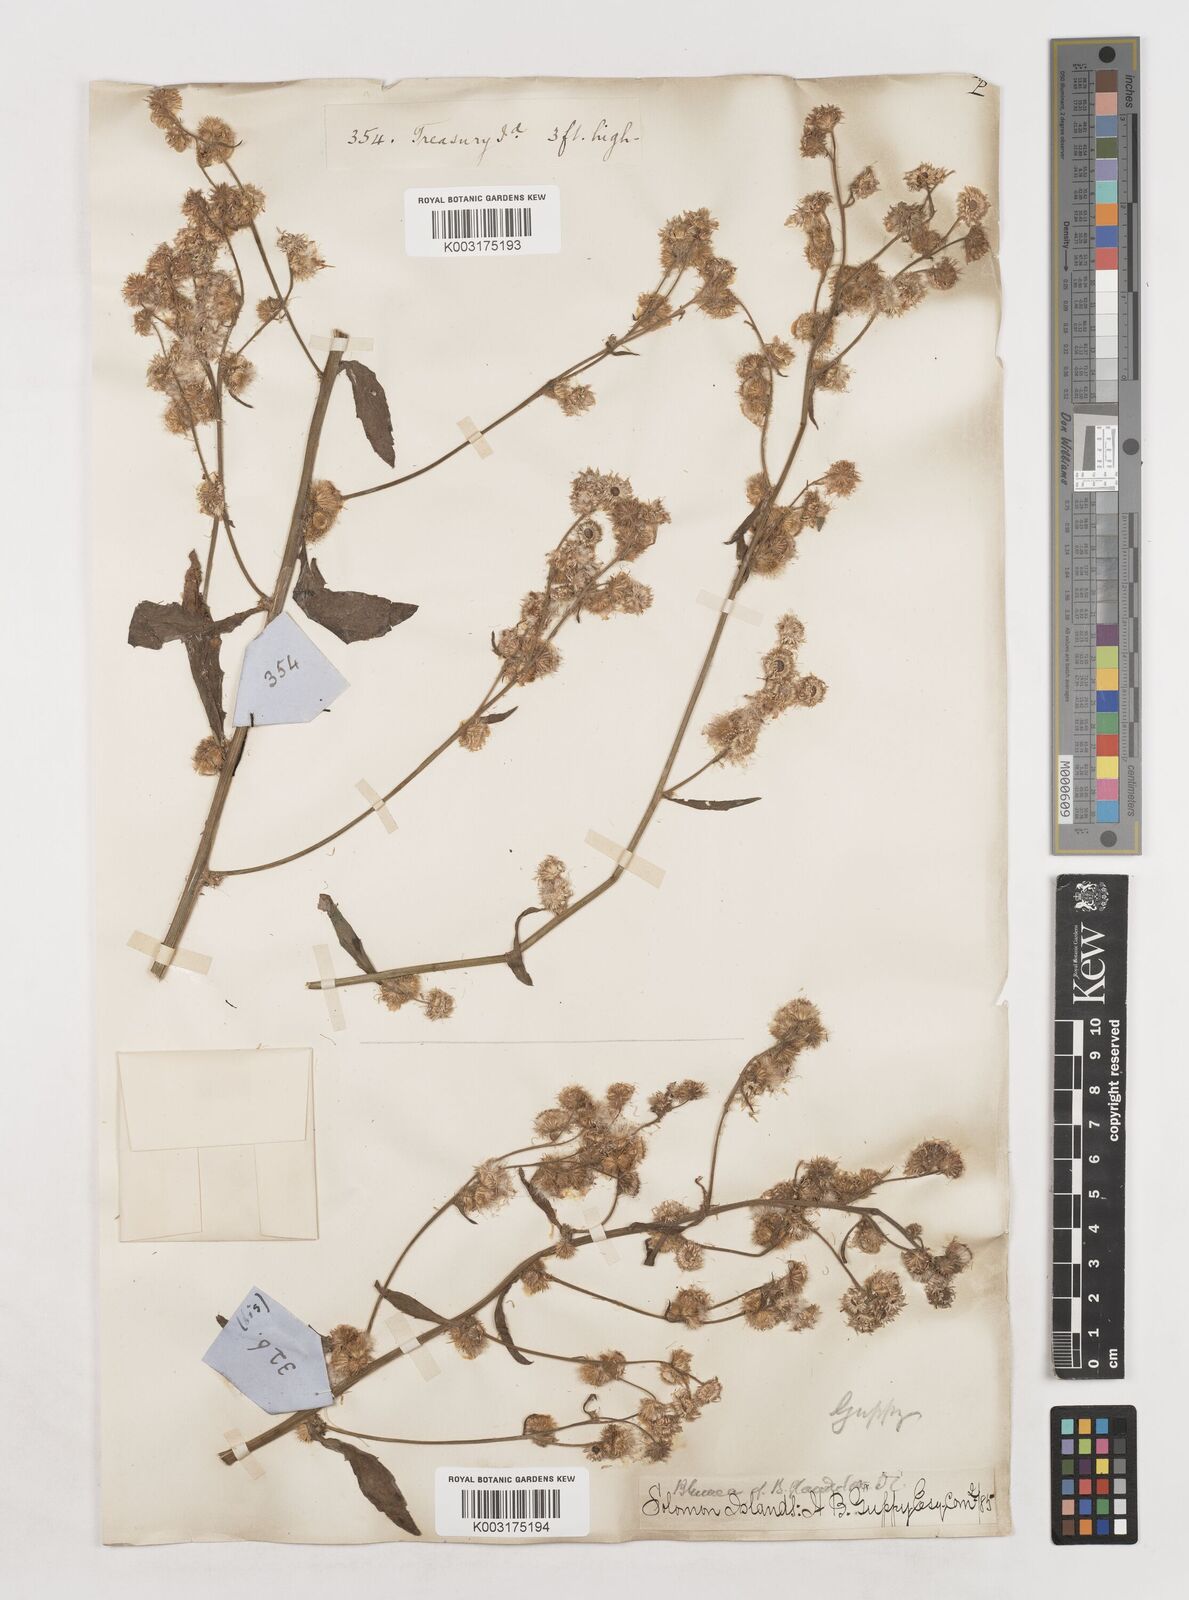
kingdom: Plantae
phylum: Tracheophyta
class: Magnoliopsida
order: Asterales
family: Asteraceae
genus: Blumea
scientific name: Blumea
